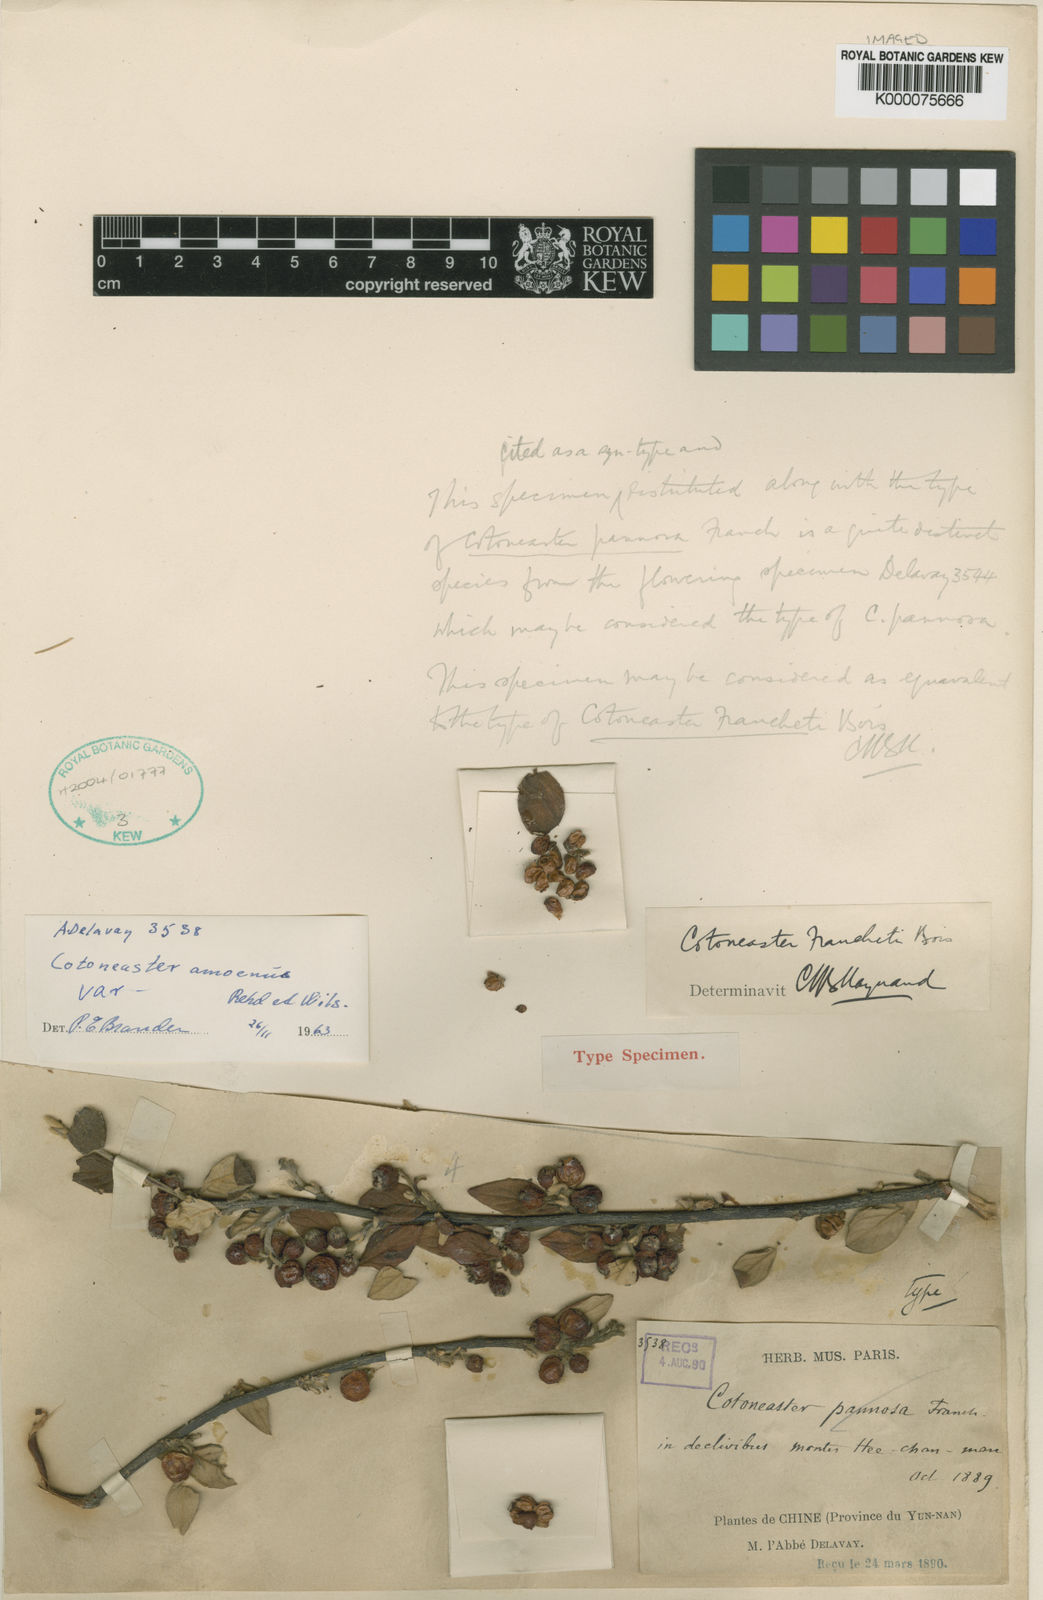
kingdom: Plantae
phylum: Tracheophyta
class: Magnoliopsida
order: Rosales
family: Rosaceae
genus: Cotoneaster
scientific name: Cotoneaster franchetii
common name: Franchet's cotoneaster
